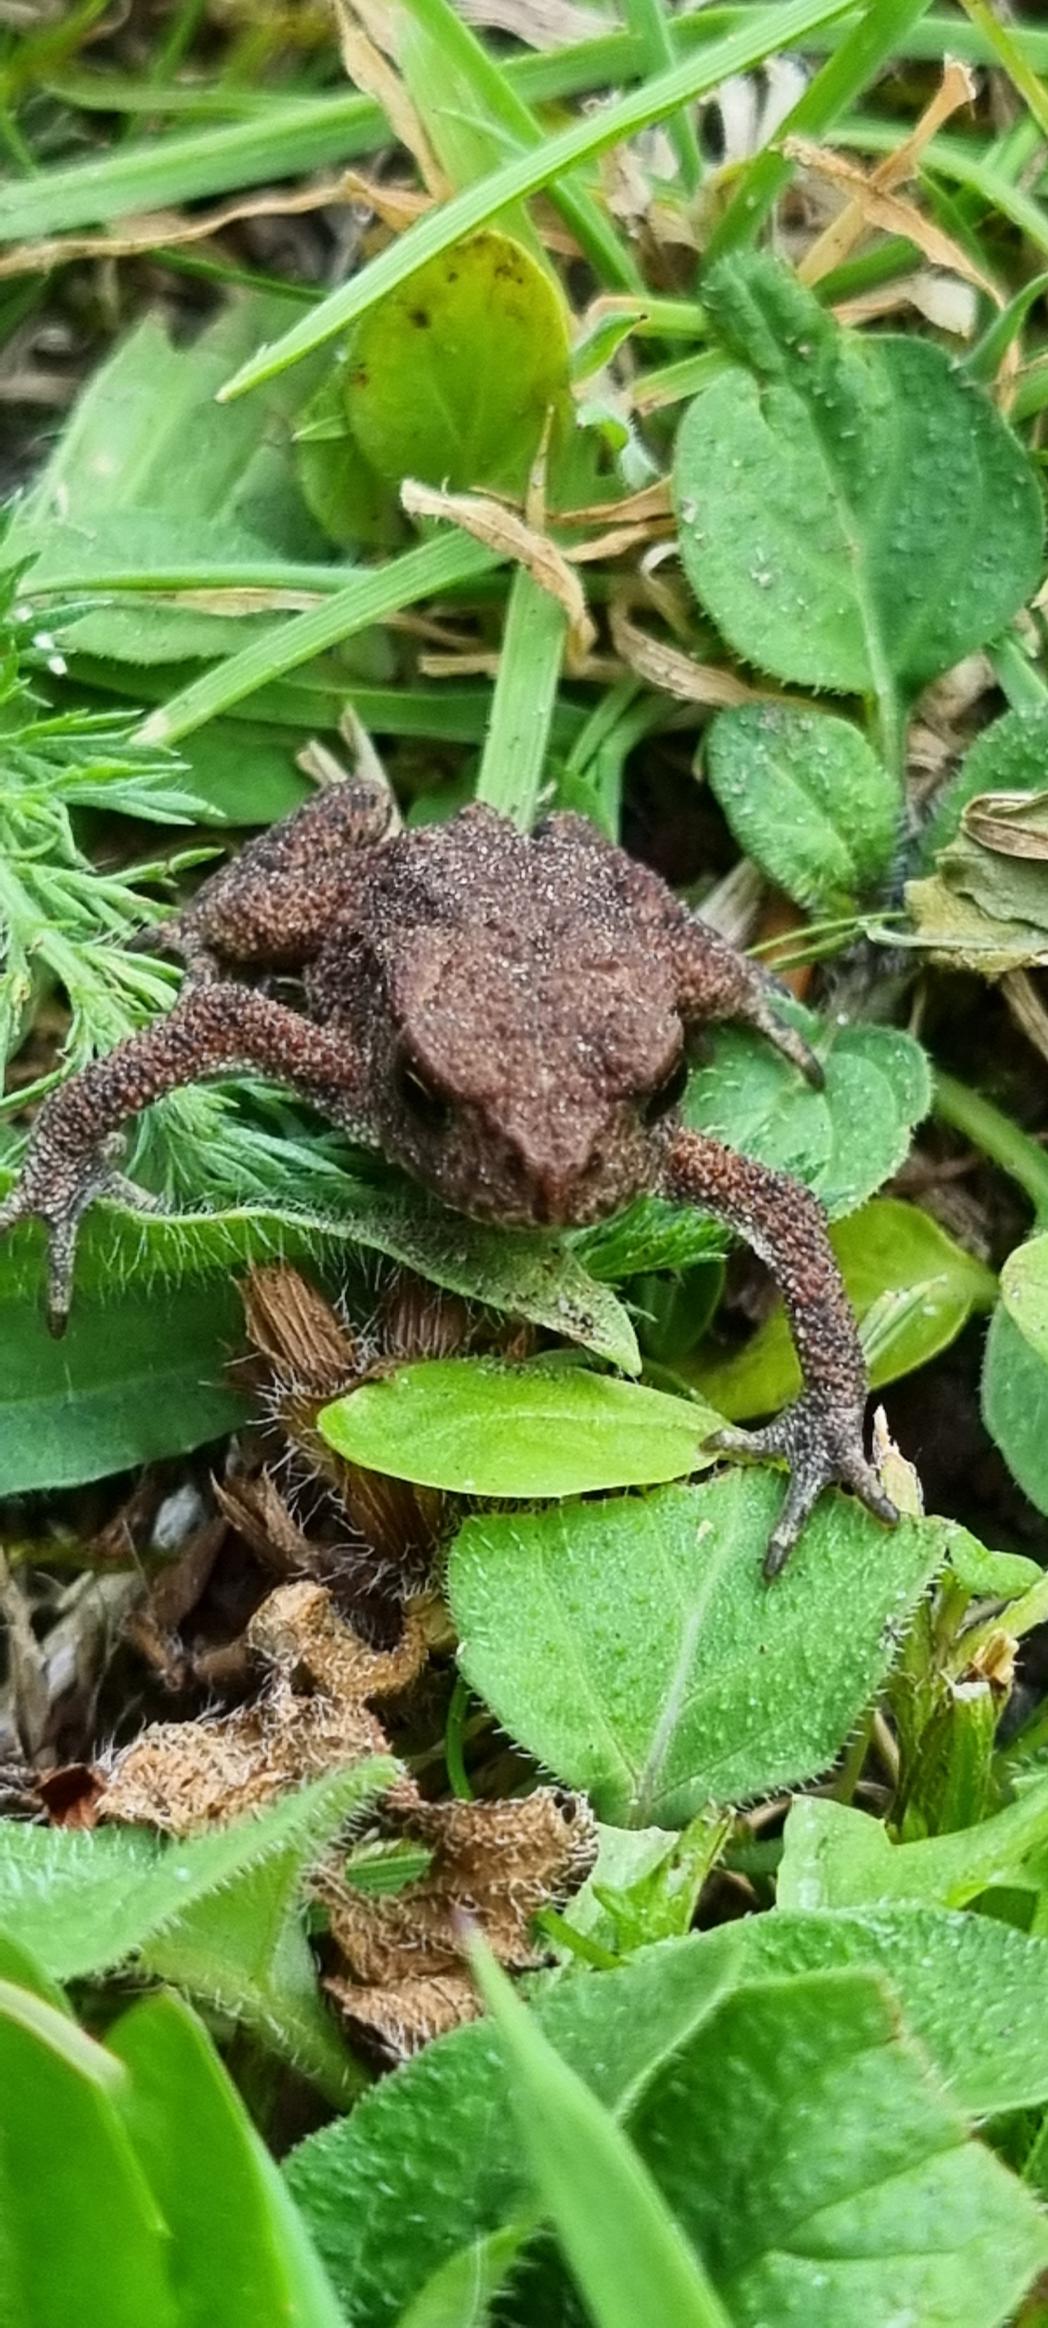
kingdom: Animalia
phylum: Chordata
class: Amphibia
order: Anura
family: Bufonidae
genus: Bufo
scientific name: Bufo bufo
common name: Skrubtudse
